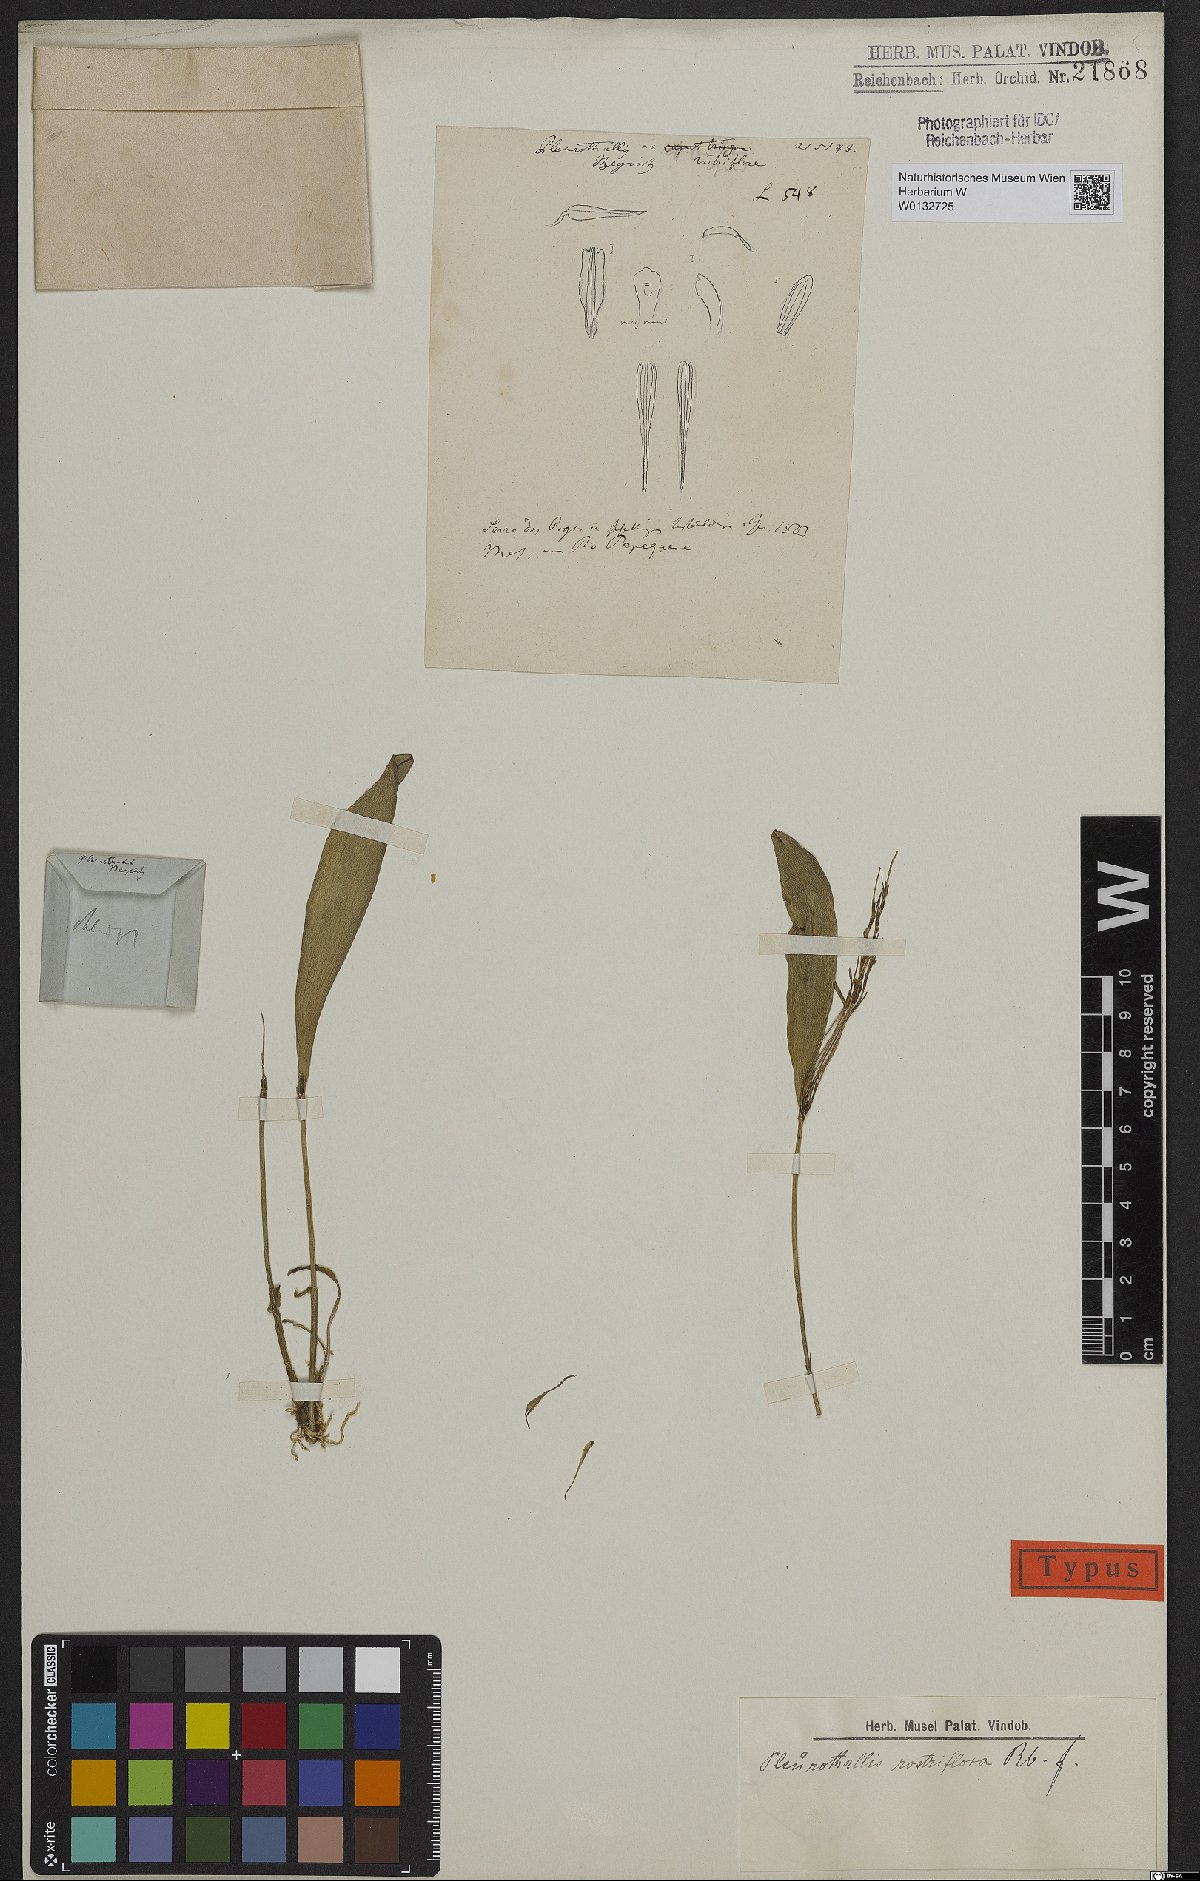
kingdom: Plantae
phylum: Tracheophyta
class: Liliopsida
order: Asparagales
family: Orchidaceae
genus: Pabstiella
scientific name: Pabstiella ephemera
